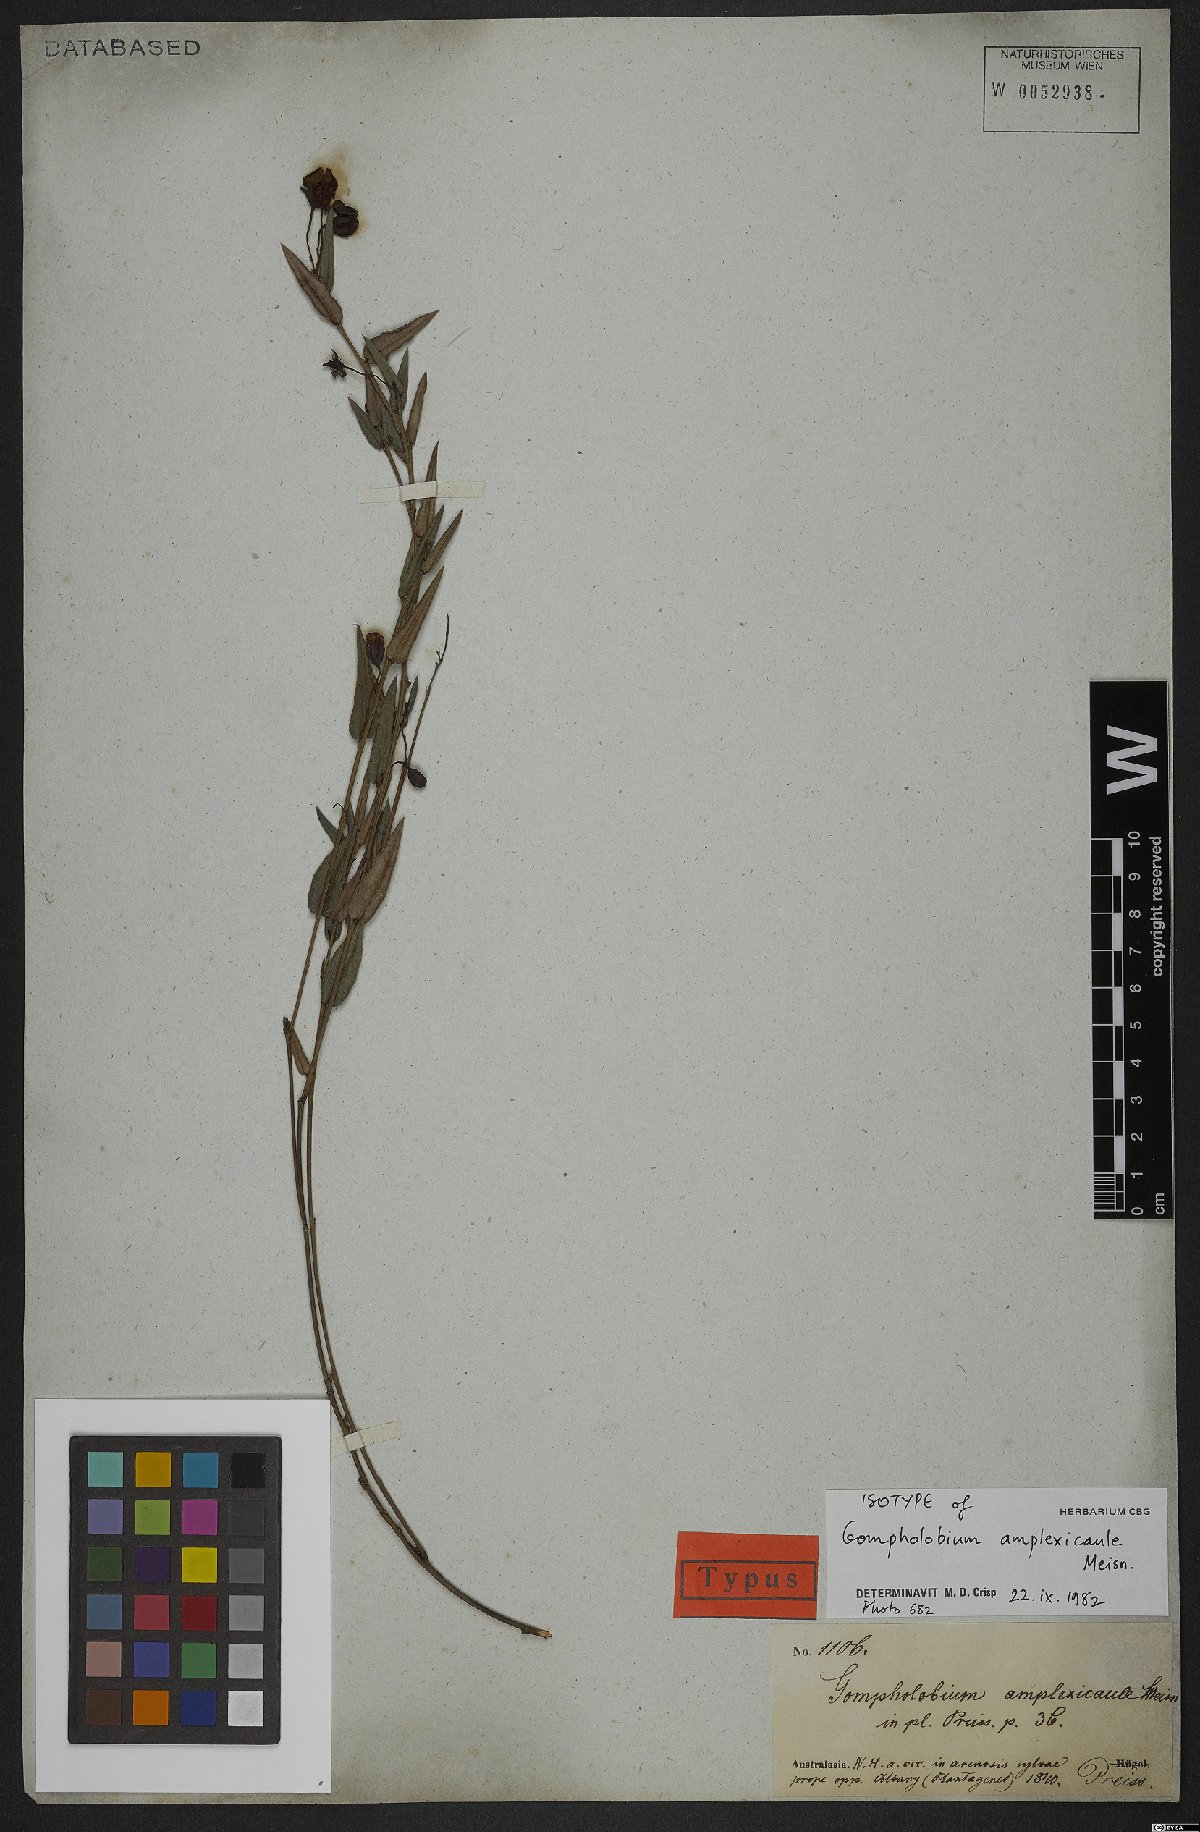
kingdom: Plantae
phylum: Tracheophyta
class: Magnoliopsida
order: Fabales
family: Fabaceae
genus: Gompholobium
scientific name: Gompholobium ovatum
